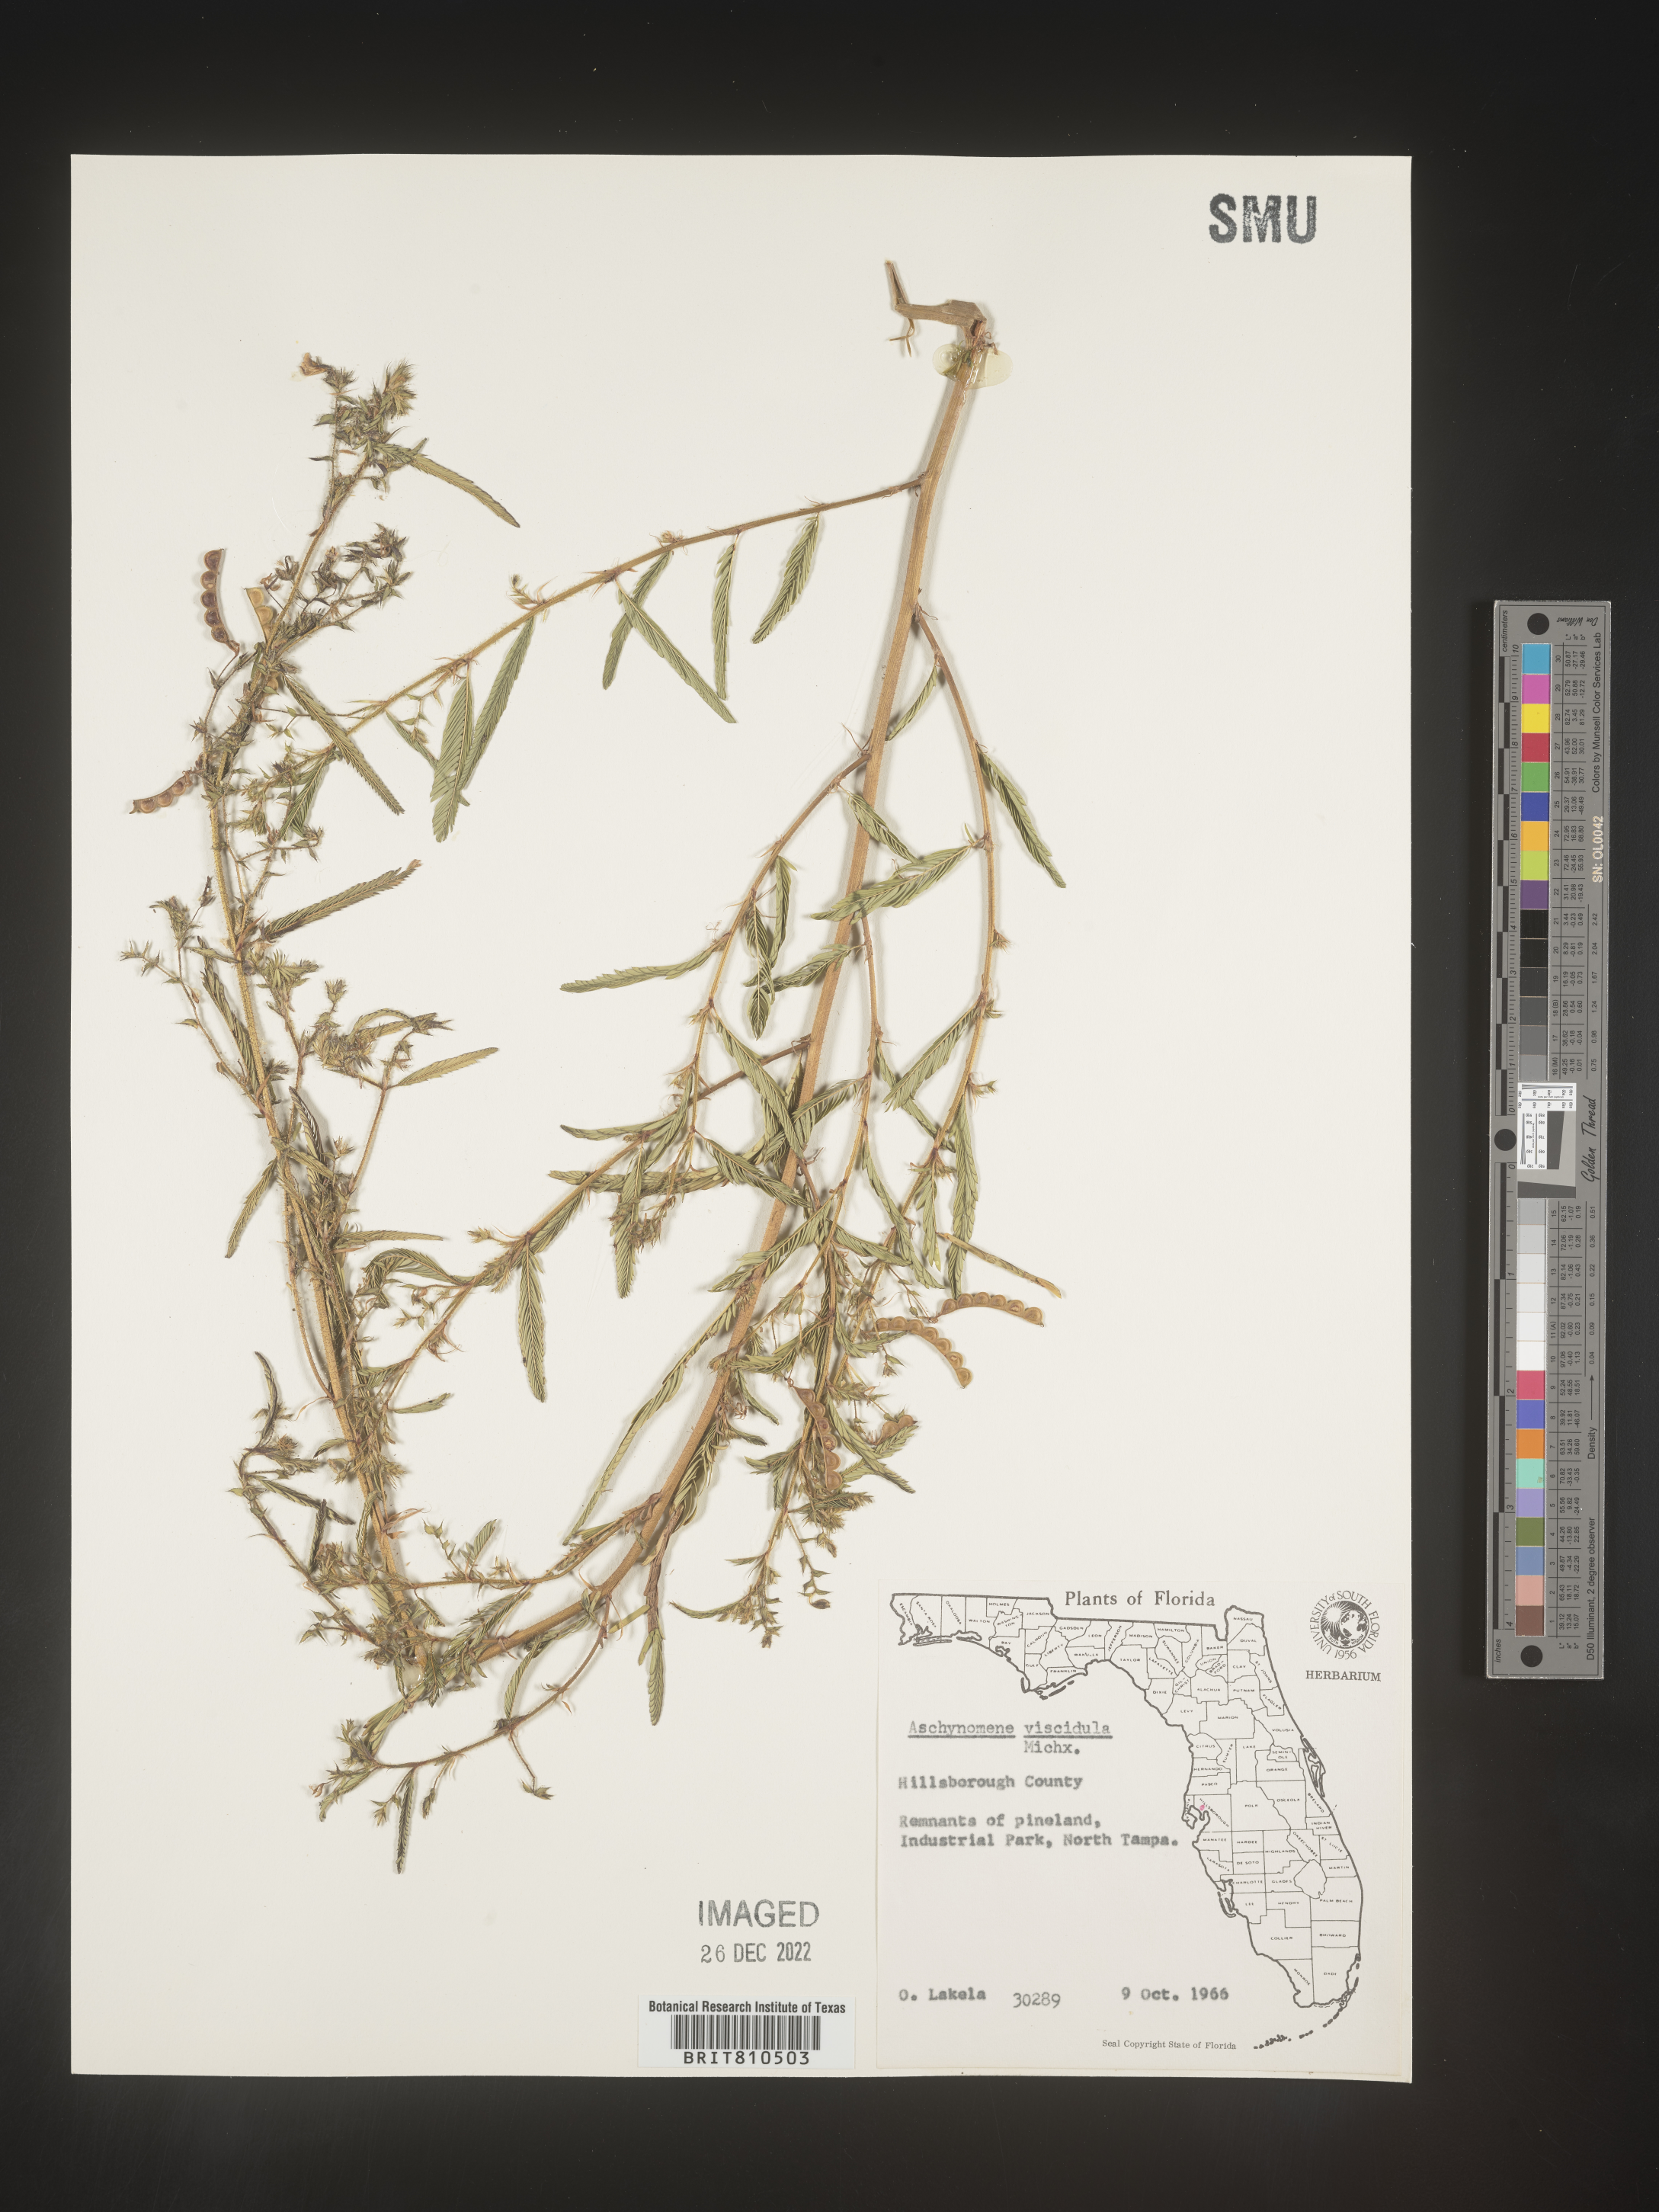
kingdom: Plantae
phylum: Tracheophyta
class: Magnoliopsida
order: Fabales
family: Fabaceae
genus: Aeschynomene
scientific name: Aeschynomene indica
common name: Indian jointvetch
